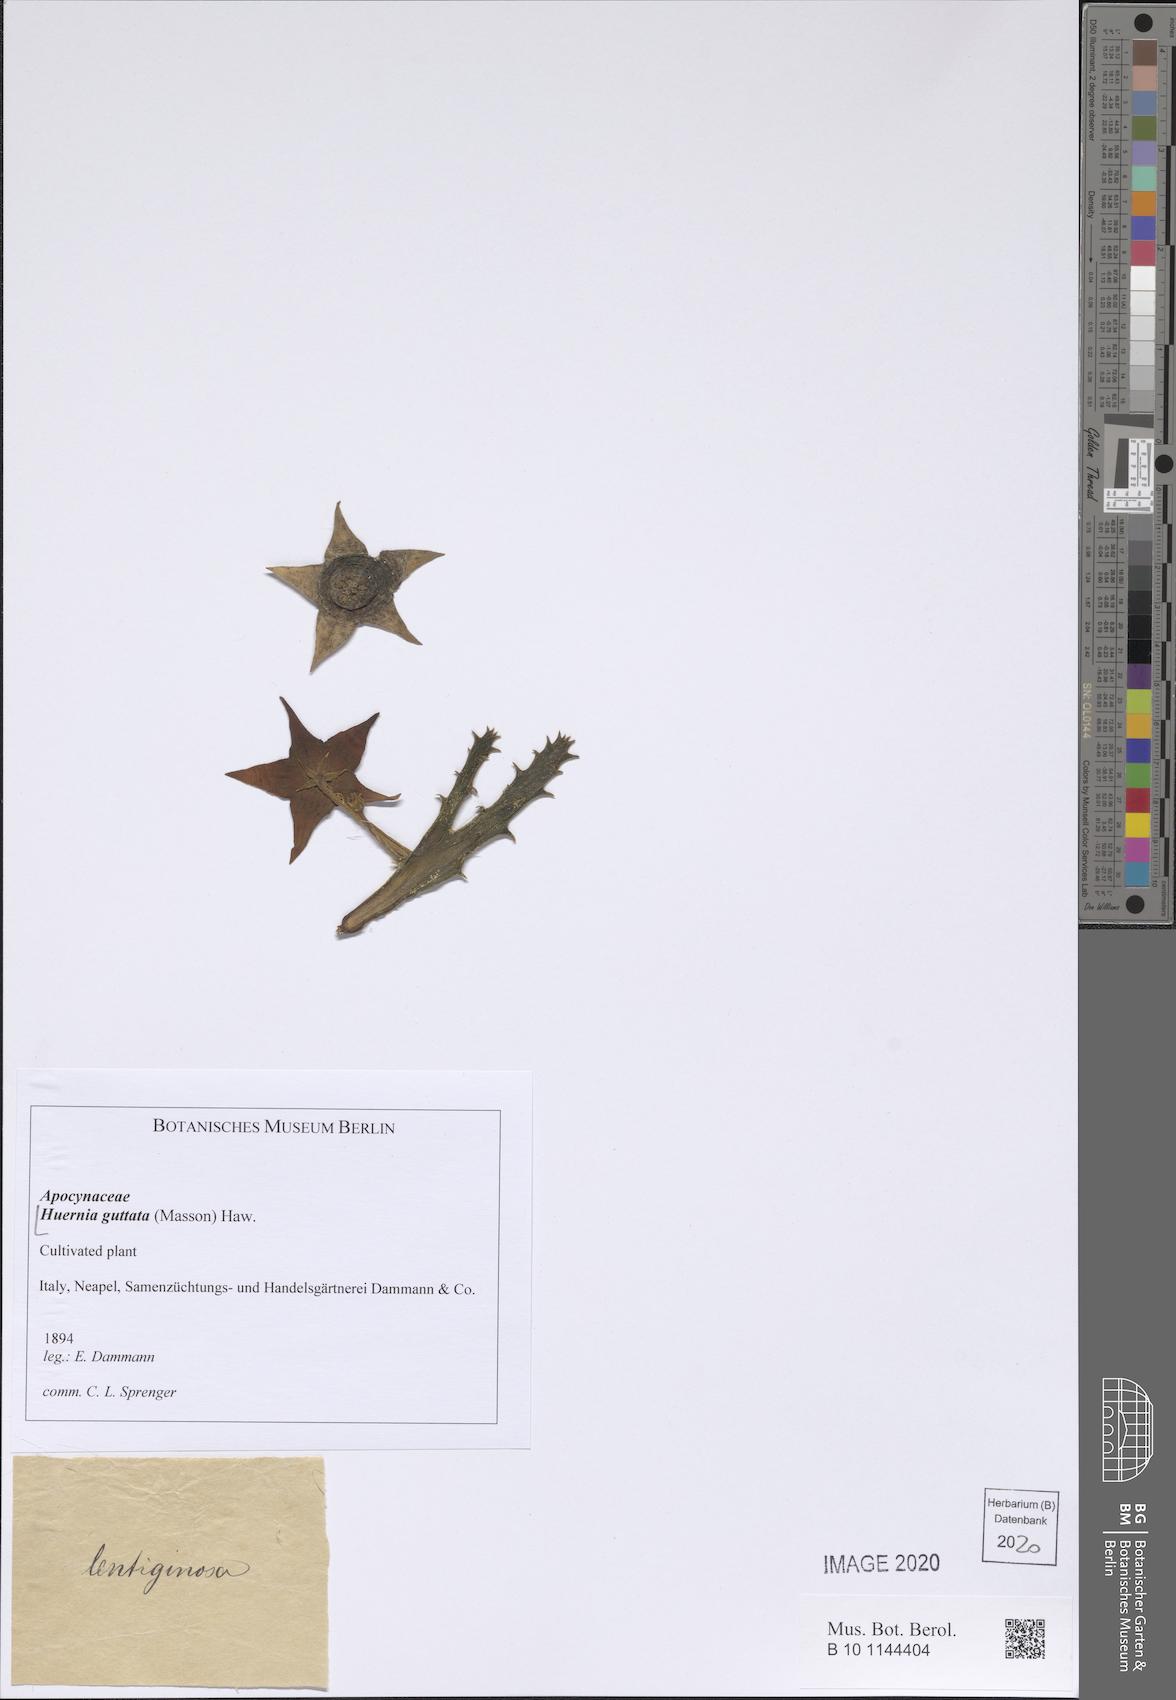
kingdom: Plantae
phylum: Tracheophyta
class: Magnoliopsida
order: Gentianales
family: Apocynaceae
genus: Ceropegia
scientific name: Ceropegia guttata
